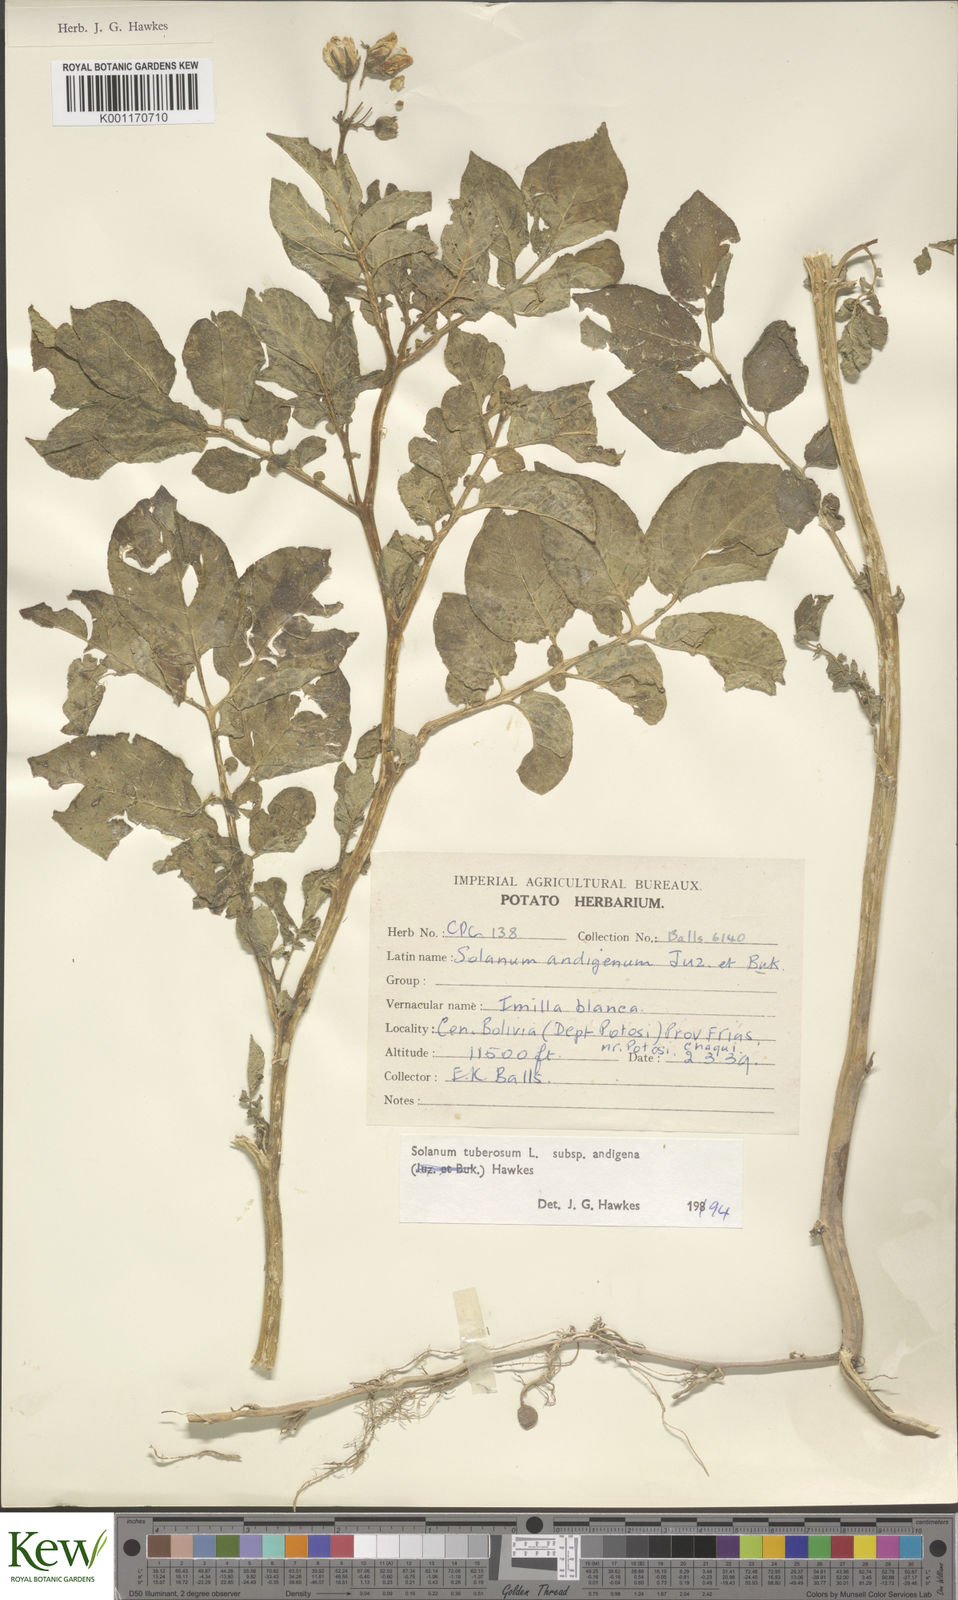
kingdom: Plantae
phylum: Tracheophyta
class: Magnoliopsida
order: Solanales
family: Solanaceae
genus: Solanum
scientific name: Solanum tuberosum
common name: Potato
